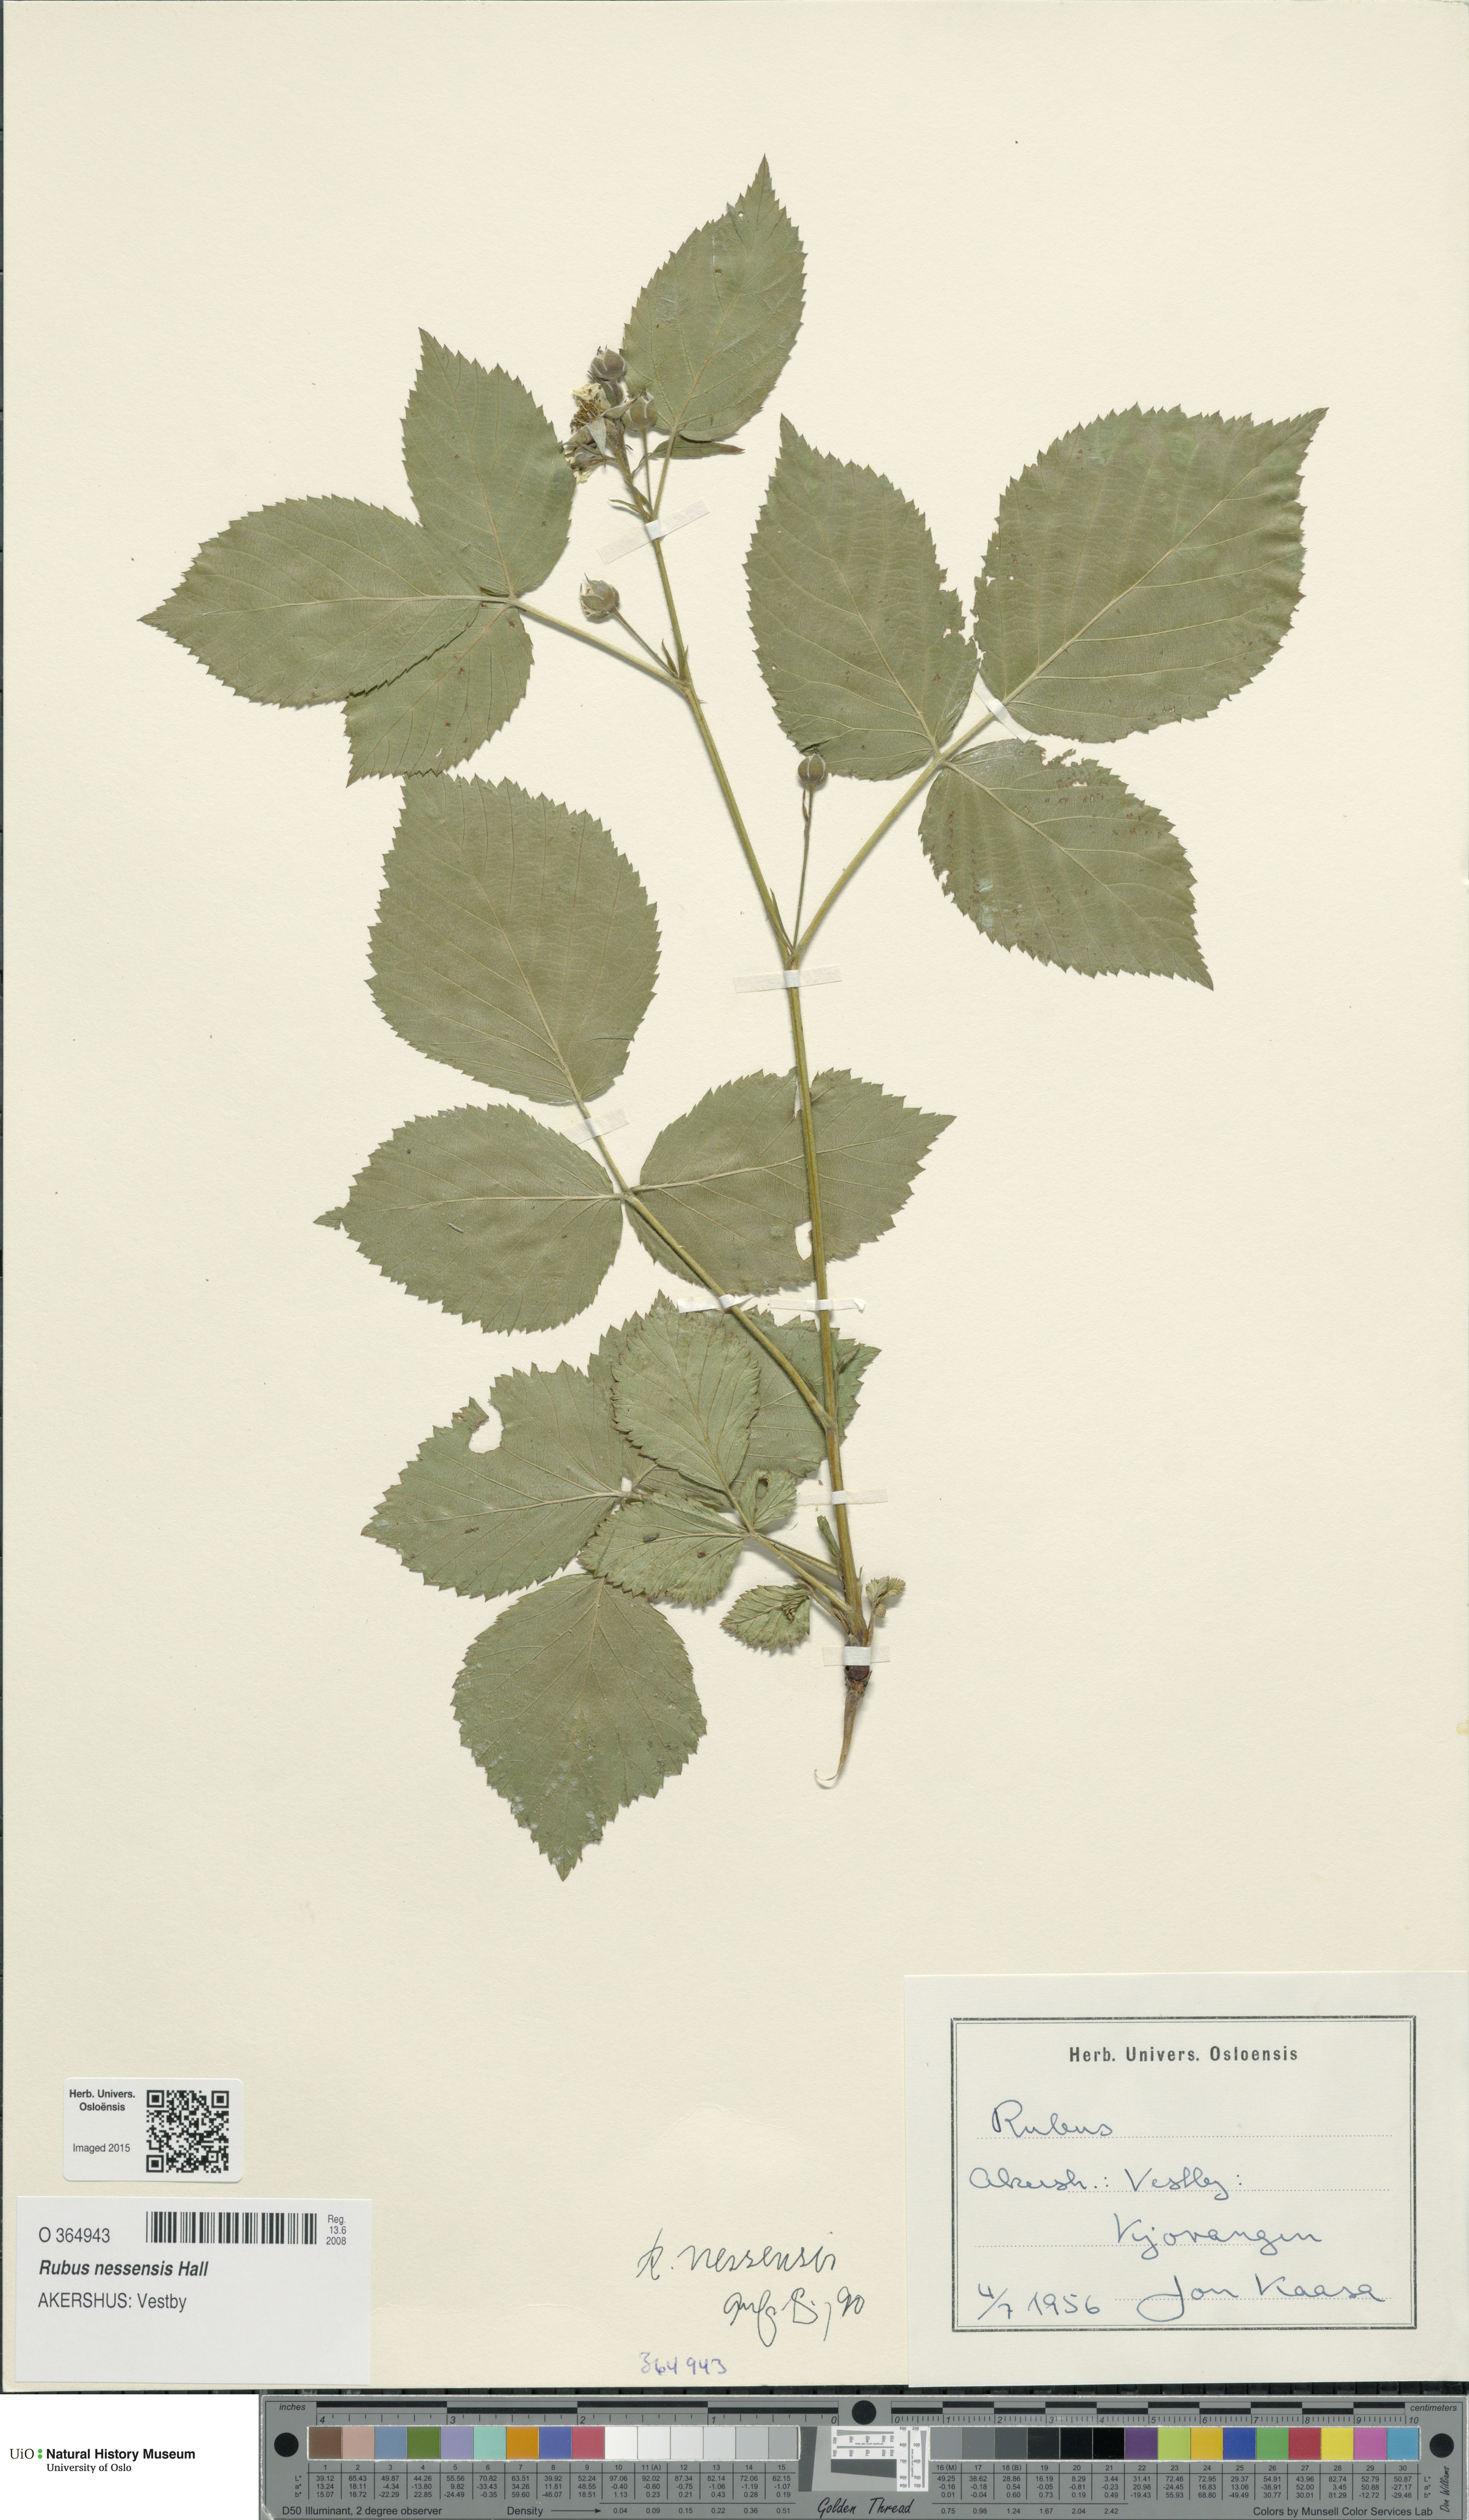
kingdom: Plantae
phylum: Tracheophyta
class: Magnoliopsida
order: Rosales
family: Rosaceae
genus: Rubus
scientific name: Rubus polonicus
